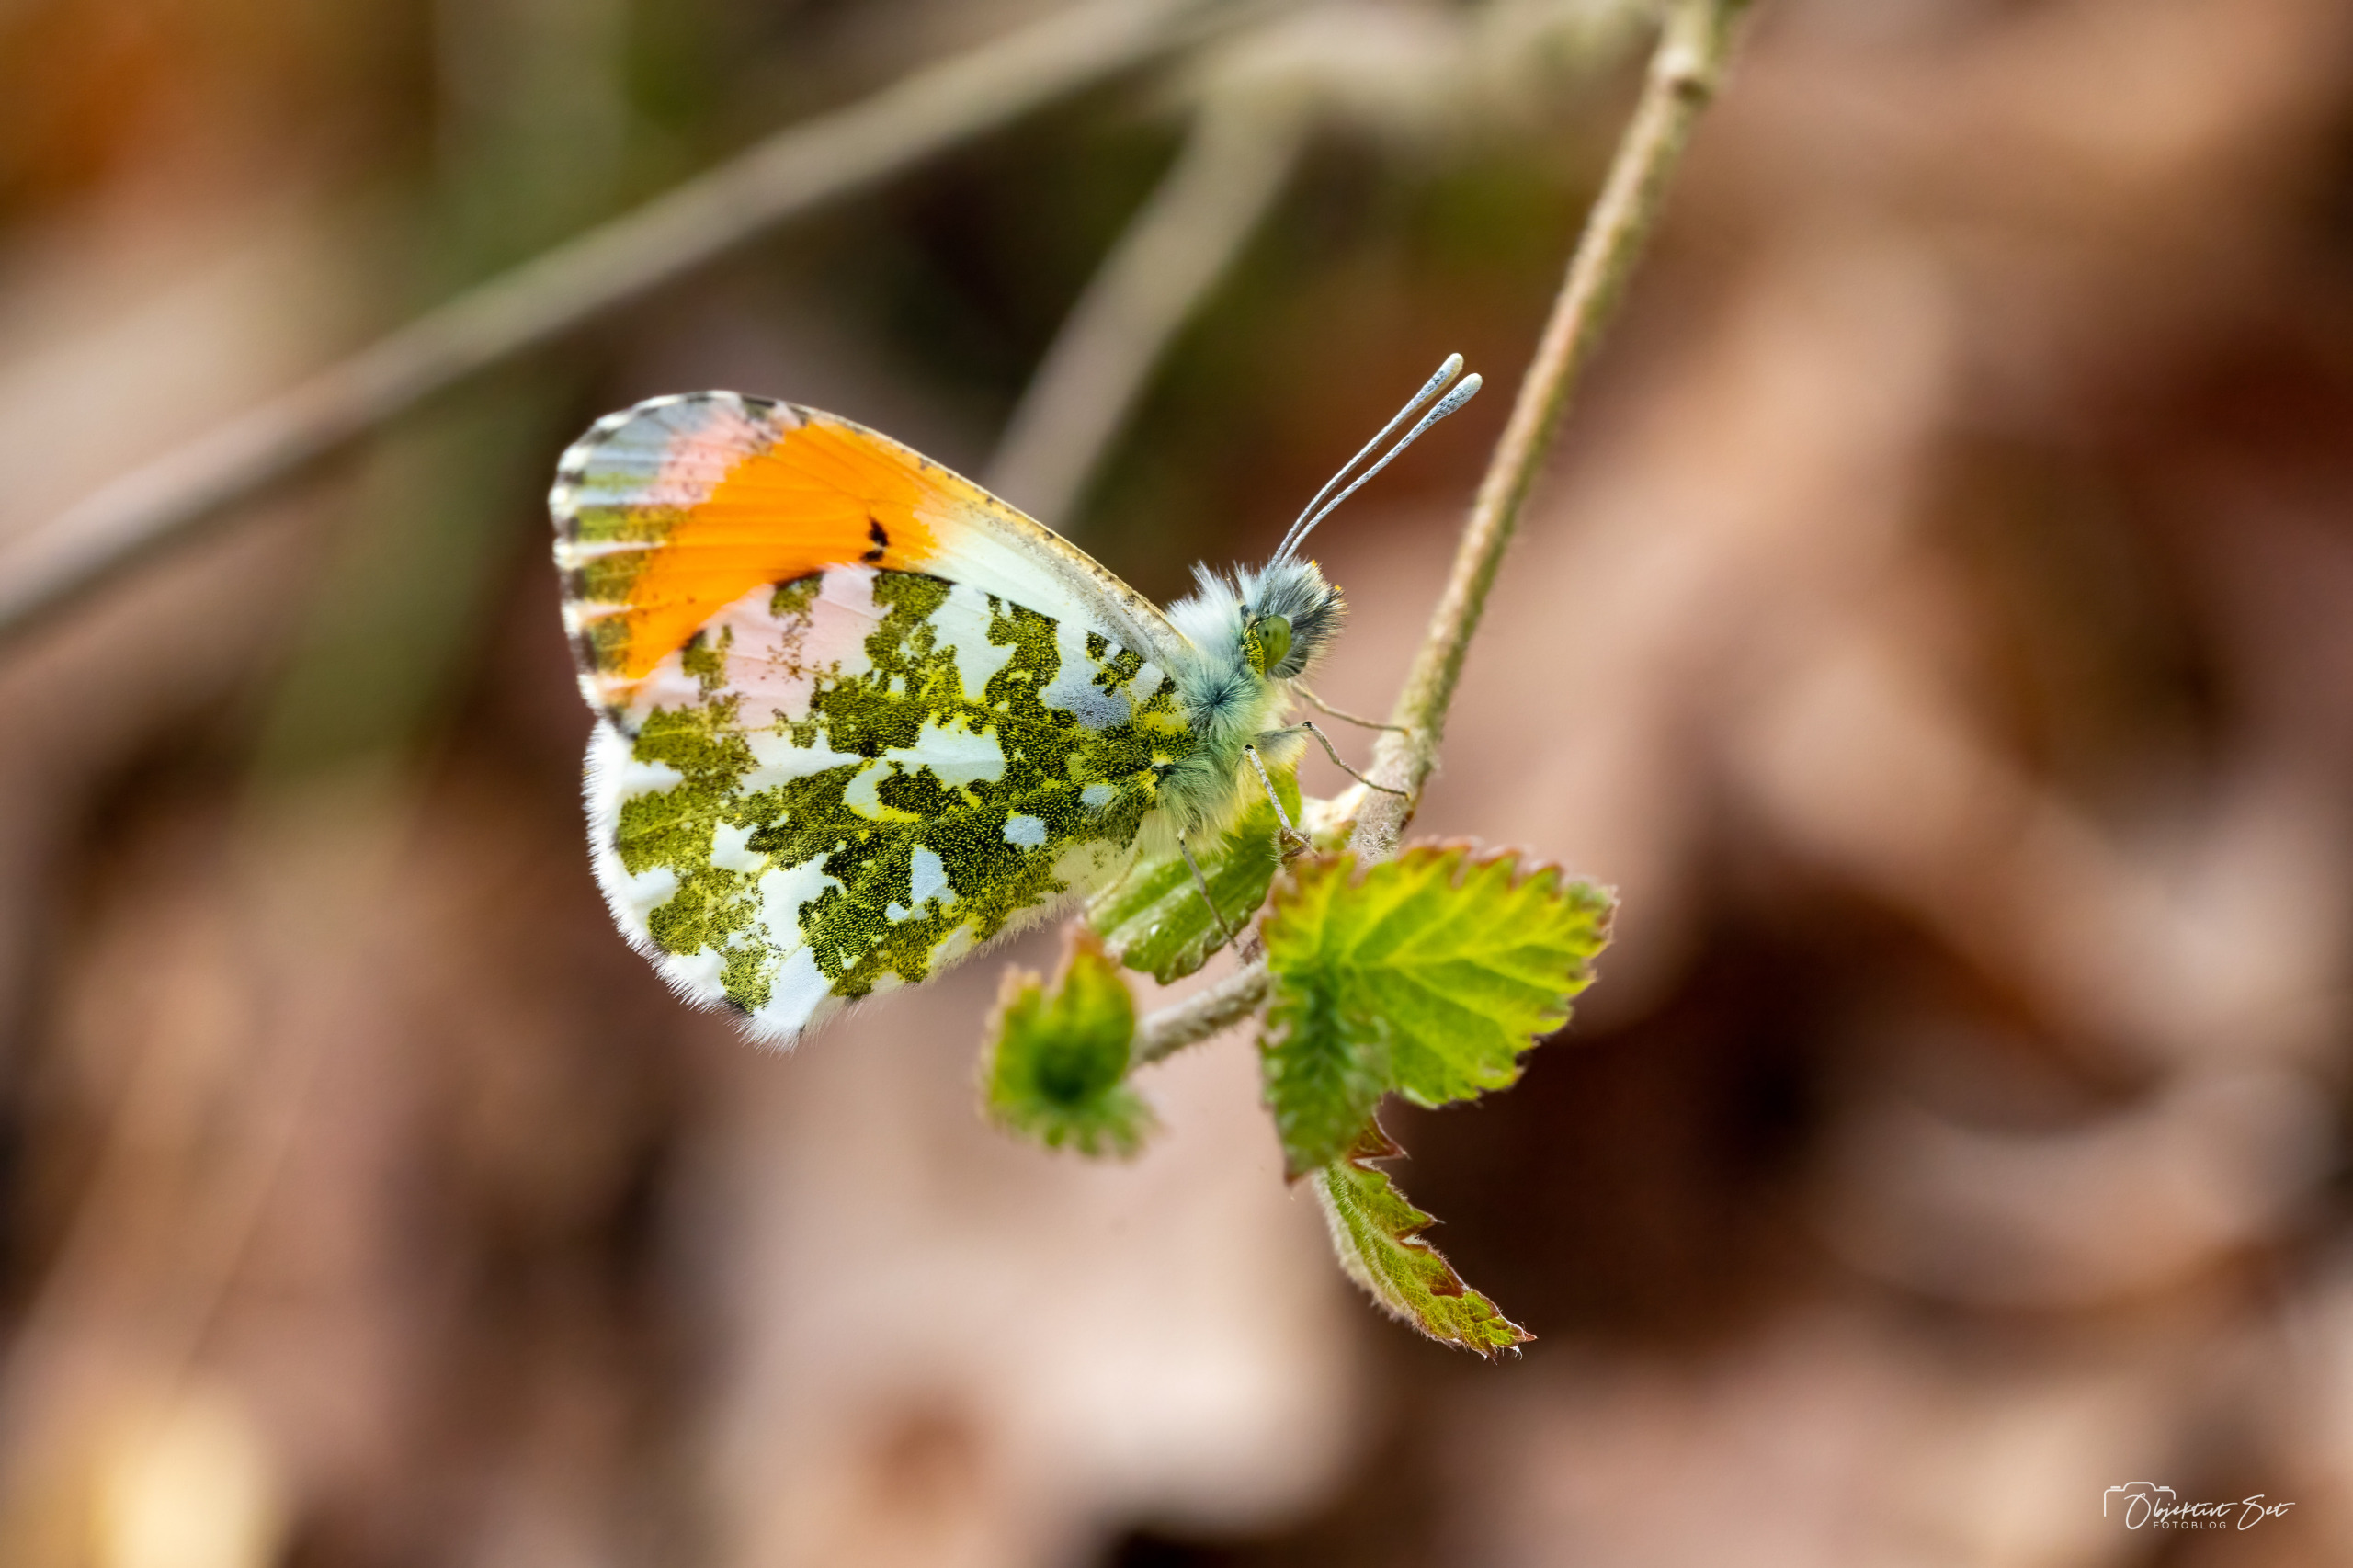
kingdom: Animalia
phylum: Arthropoda
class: Insecta
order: Lepidoptera
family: Pieridae
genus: Anthocharis
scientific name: Anthocharis cardamines
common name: Aurora
